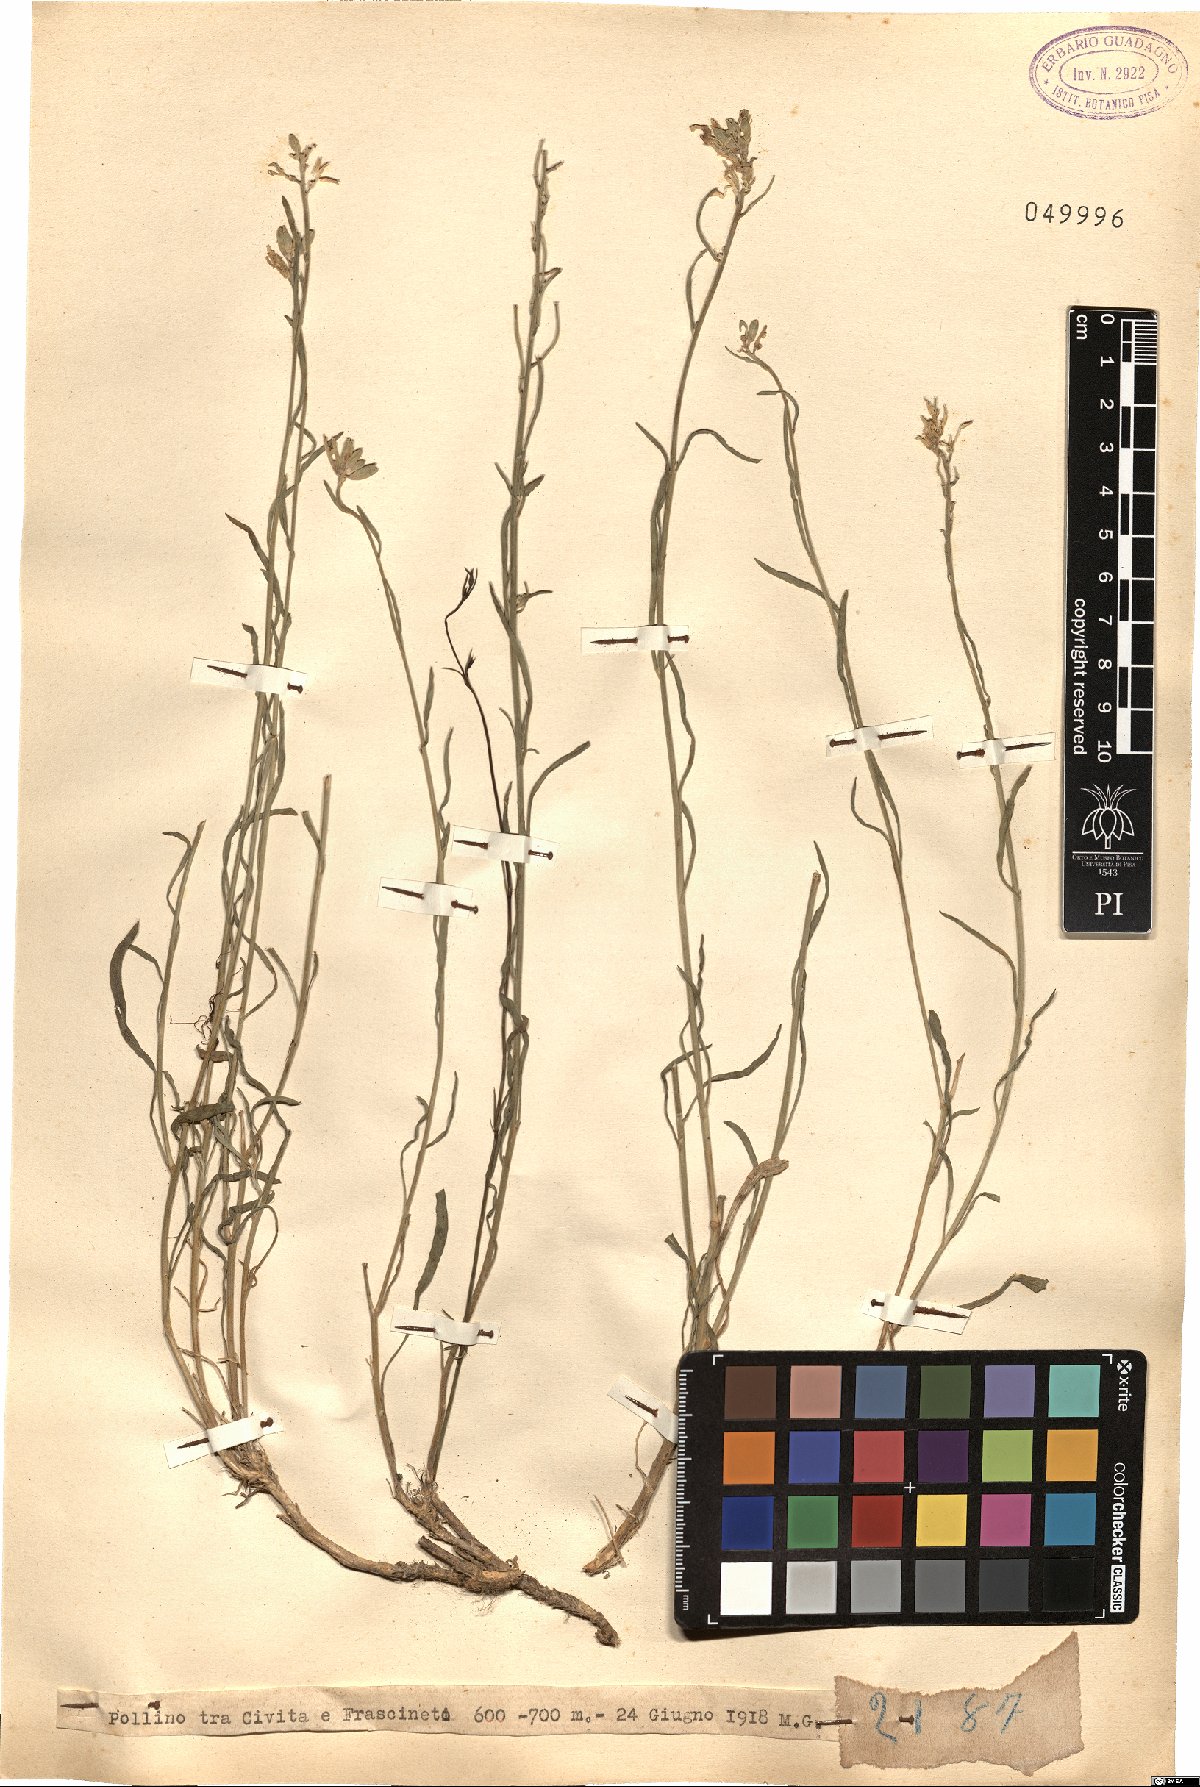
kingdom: Plantae
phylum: Tracheophyta
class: Magnoliopsida
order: Brassicales
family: Brassicaceae
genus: Erysimum
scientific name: Erysimum
